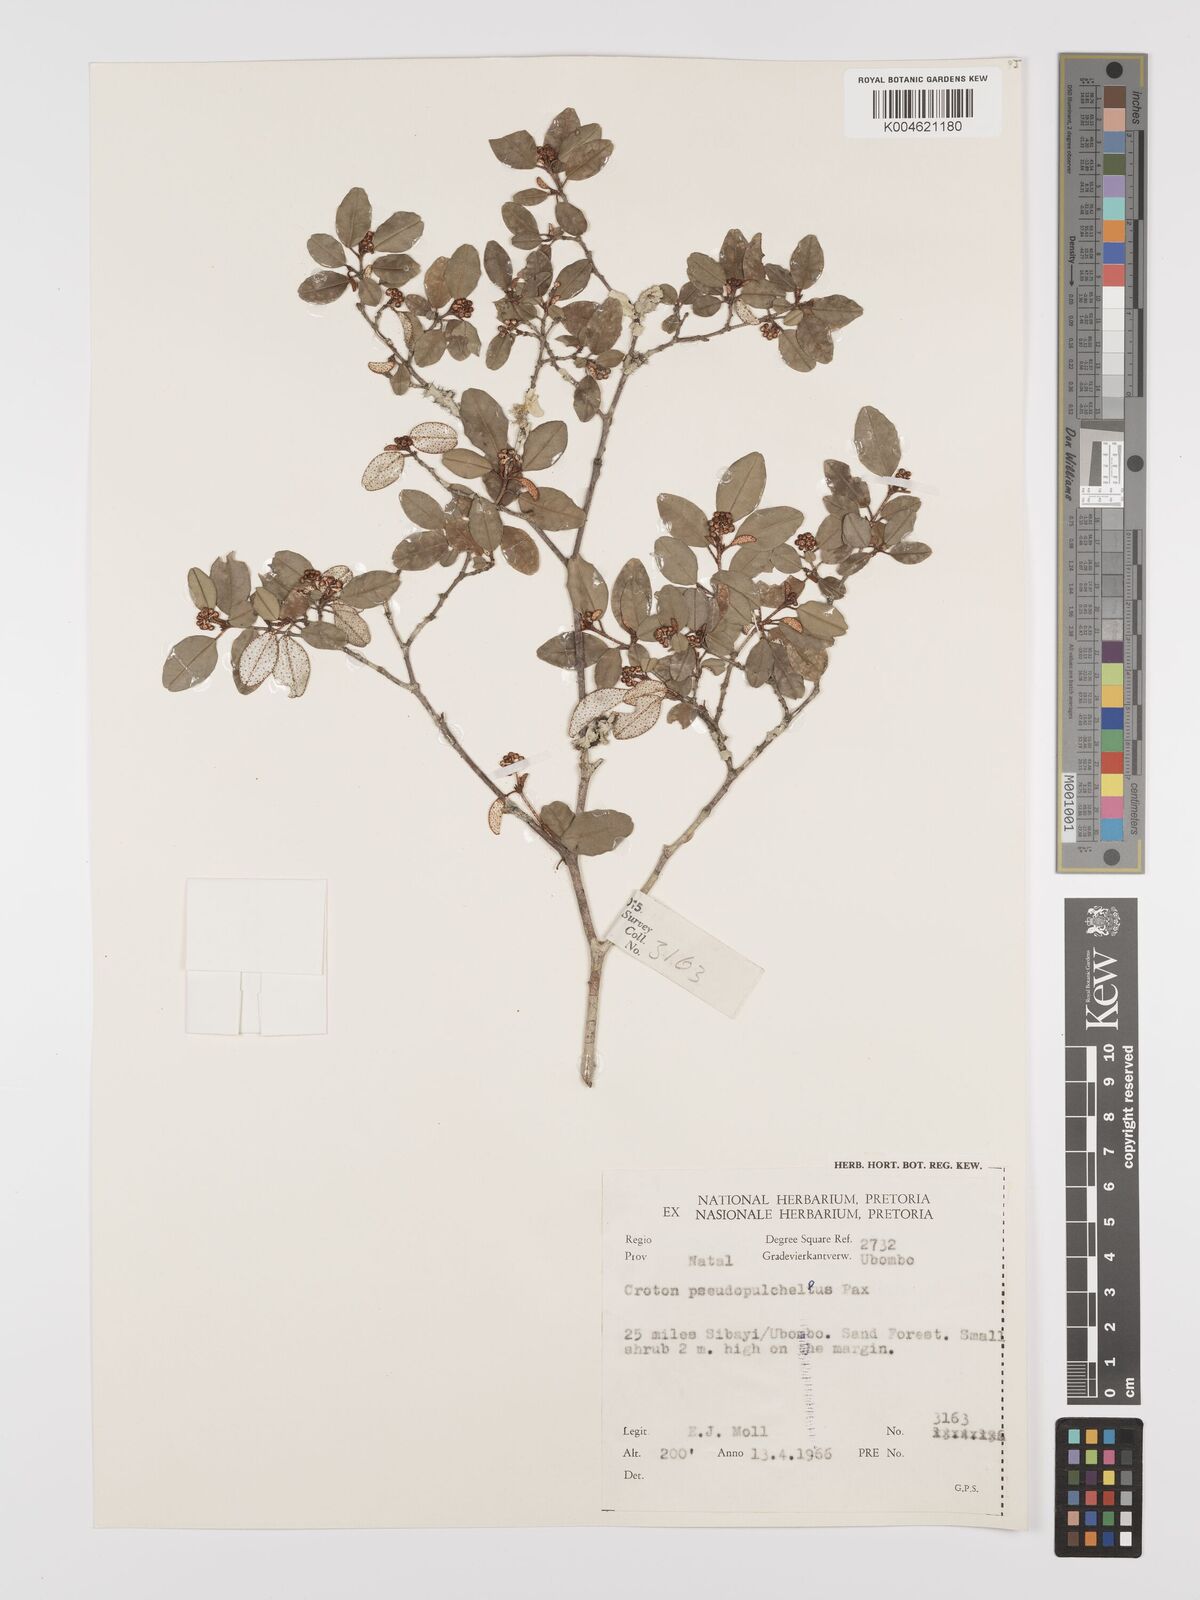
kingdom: Plantae
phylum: Tracheophyta
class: Magnoliopsida
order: Malpighiales
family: Euphorbiaceae
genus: Croton
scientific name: Croton pseudopulchellus
